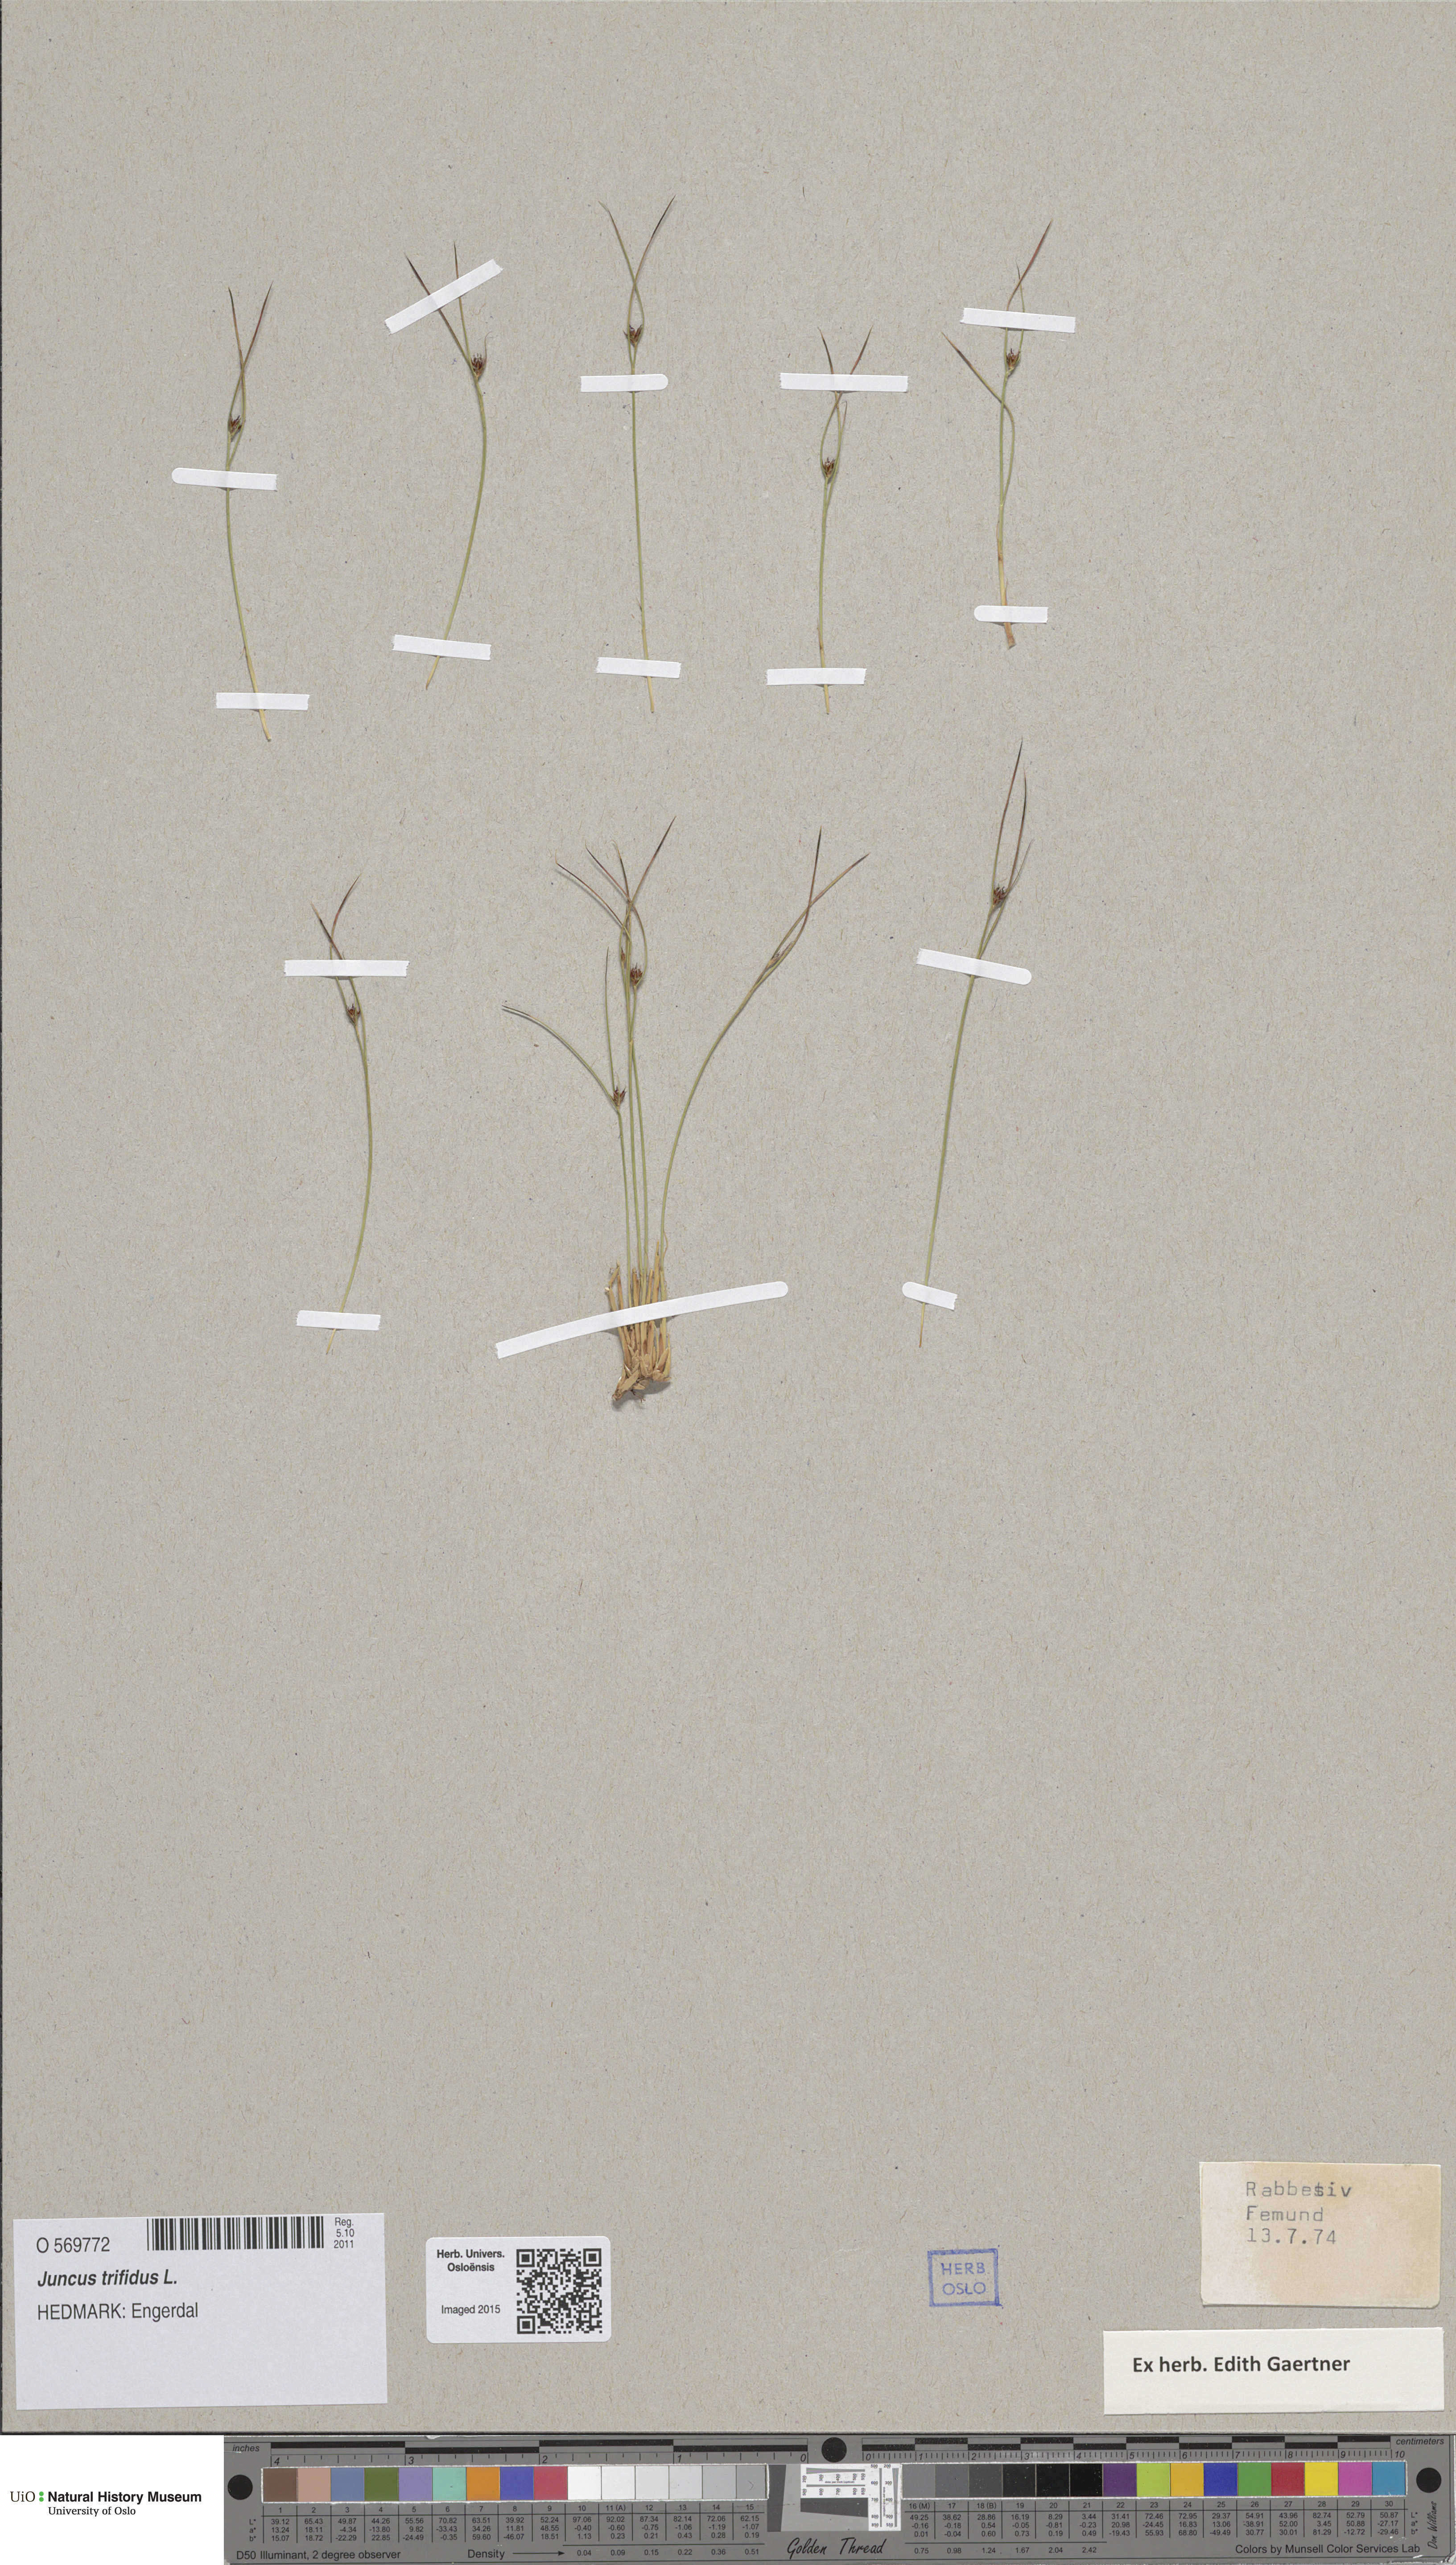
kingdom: Plantae
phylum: Tracheophyta
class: Liliopsida
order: Poales
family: Juncaceae
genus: Oreojuncus
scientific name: Oreojuncus trifidus
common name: Highland rush
